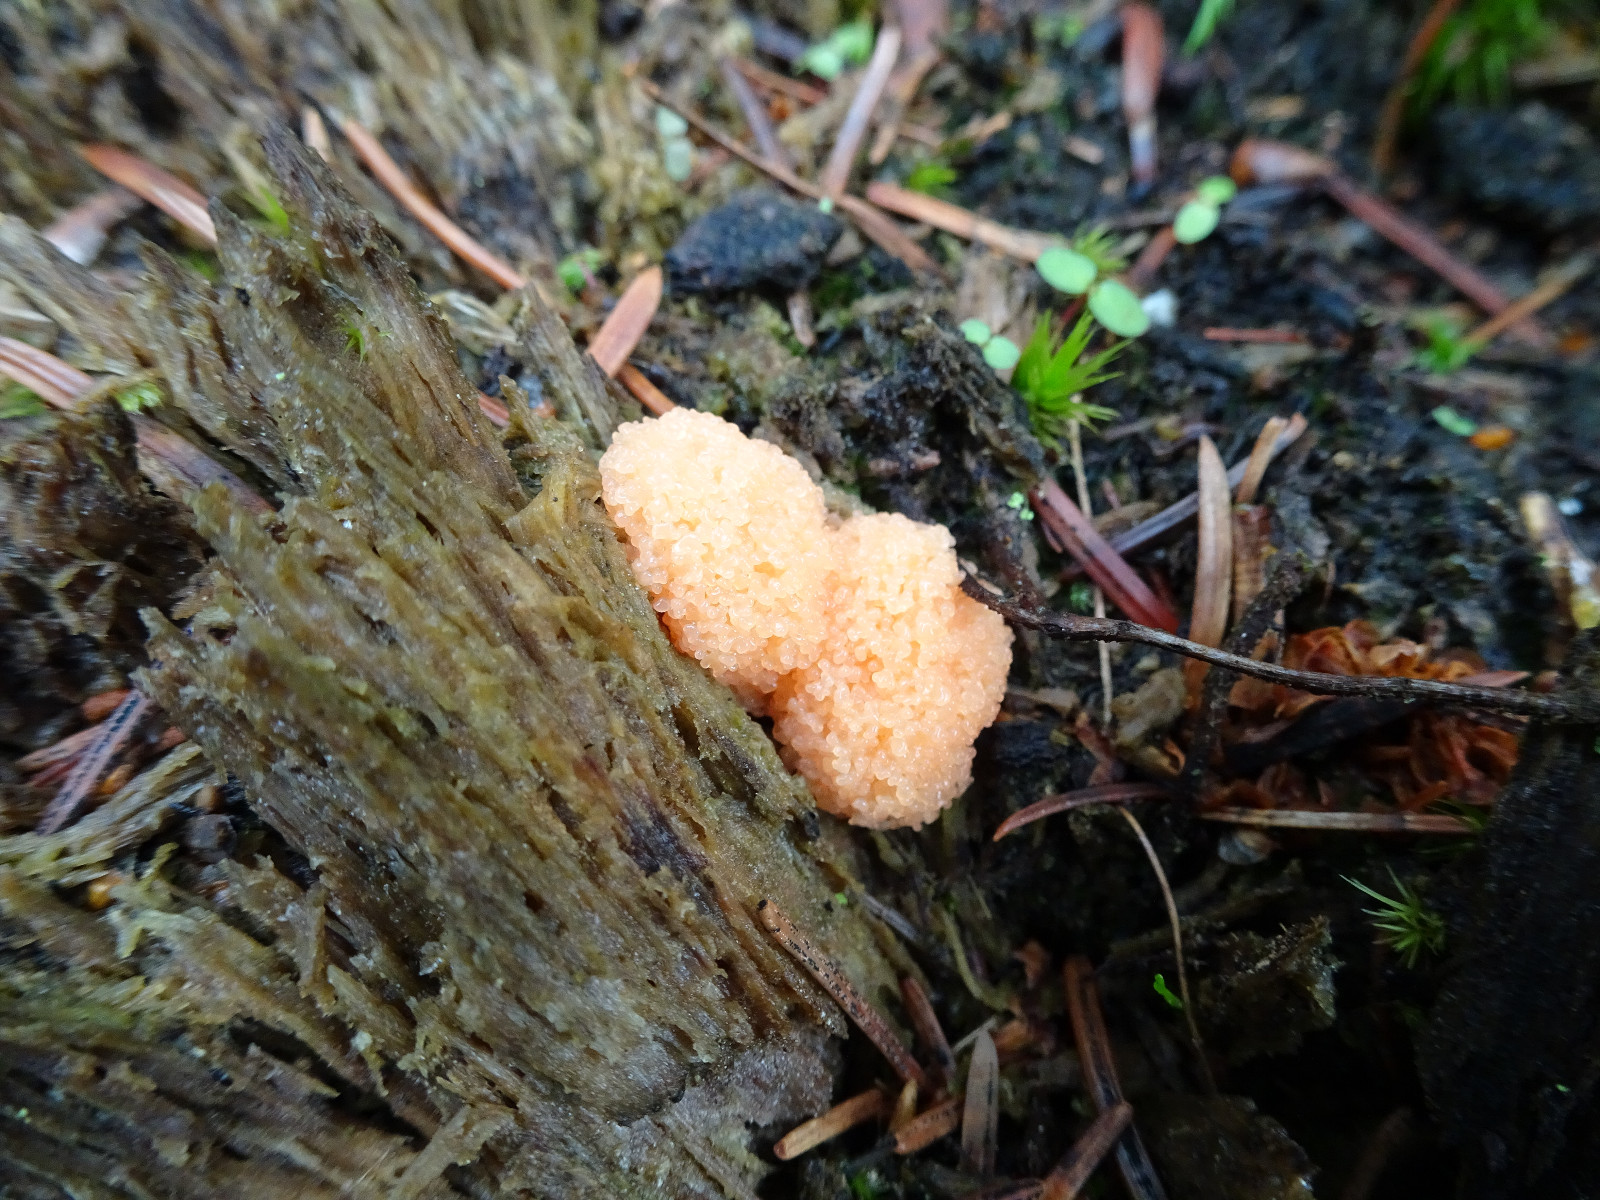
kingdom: Protozoa
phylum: Mycetozoa
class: Myxomycetes
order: Cribrariales
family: Tubiferaceae
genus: Tubifera
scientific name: Tubifera ferruginosa
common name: kanel-støvrør
